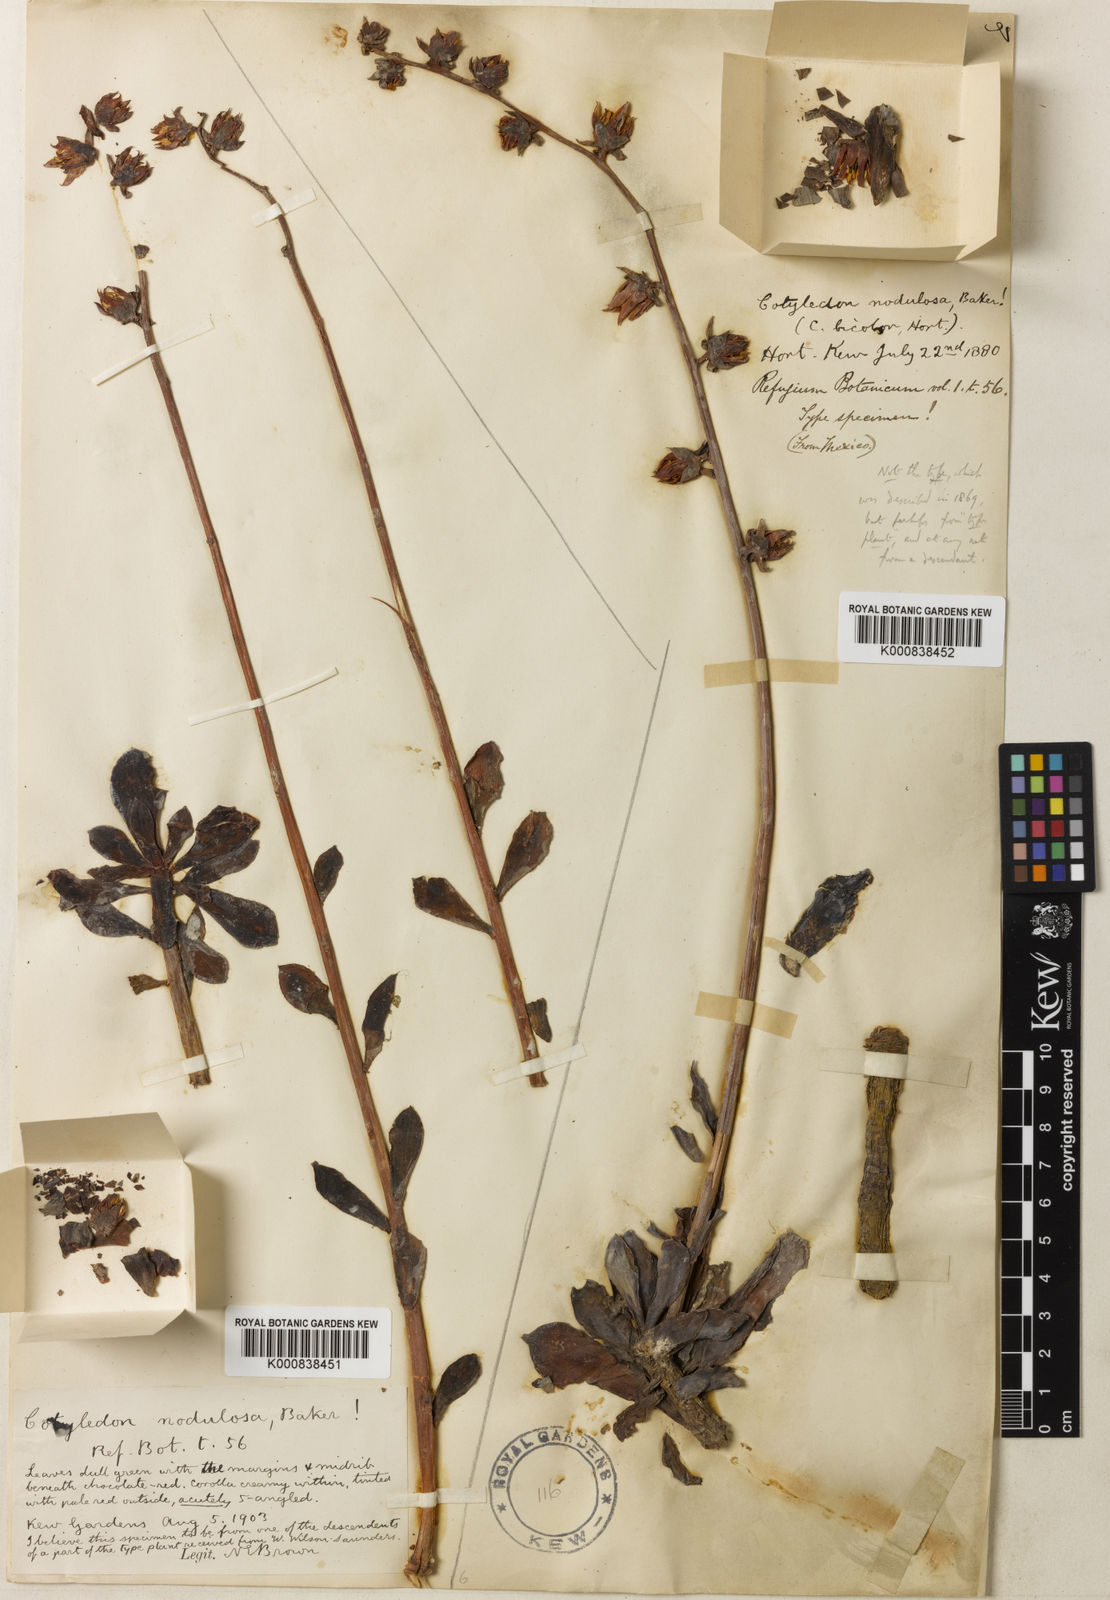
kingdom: Plantae
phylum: Tracheophyta
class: Magnoliopsida
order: Saxifragales
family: Crassulaceae
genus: Echeveria
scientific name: Echeveria nodulosa
